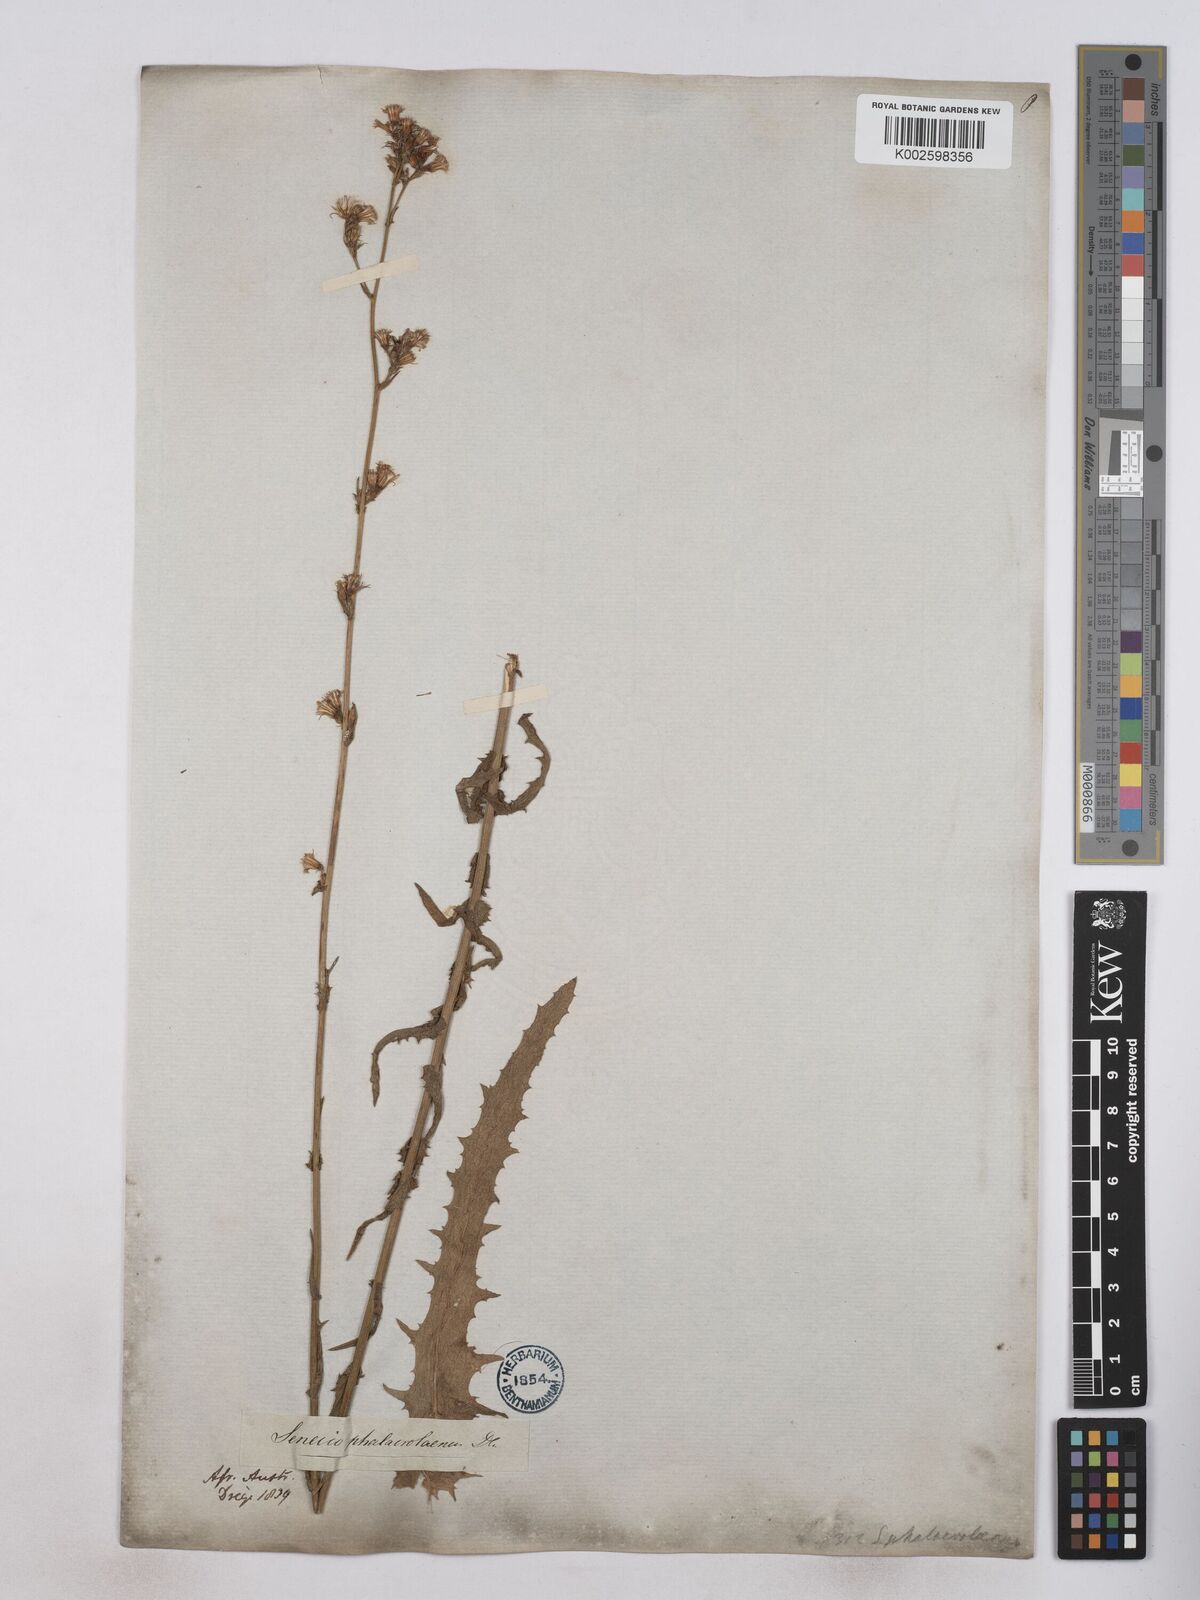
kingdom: Plantae
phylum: Tracheophyta
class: Magnoliopsida
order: Asterales
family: Asteraceae
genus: Senecio
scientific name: Senecio phalachrolaenus
